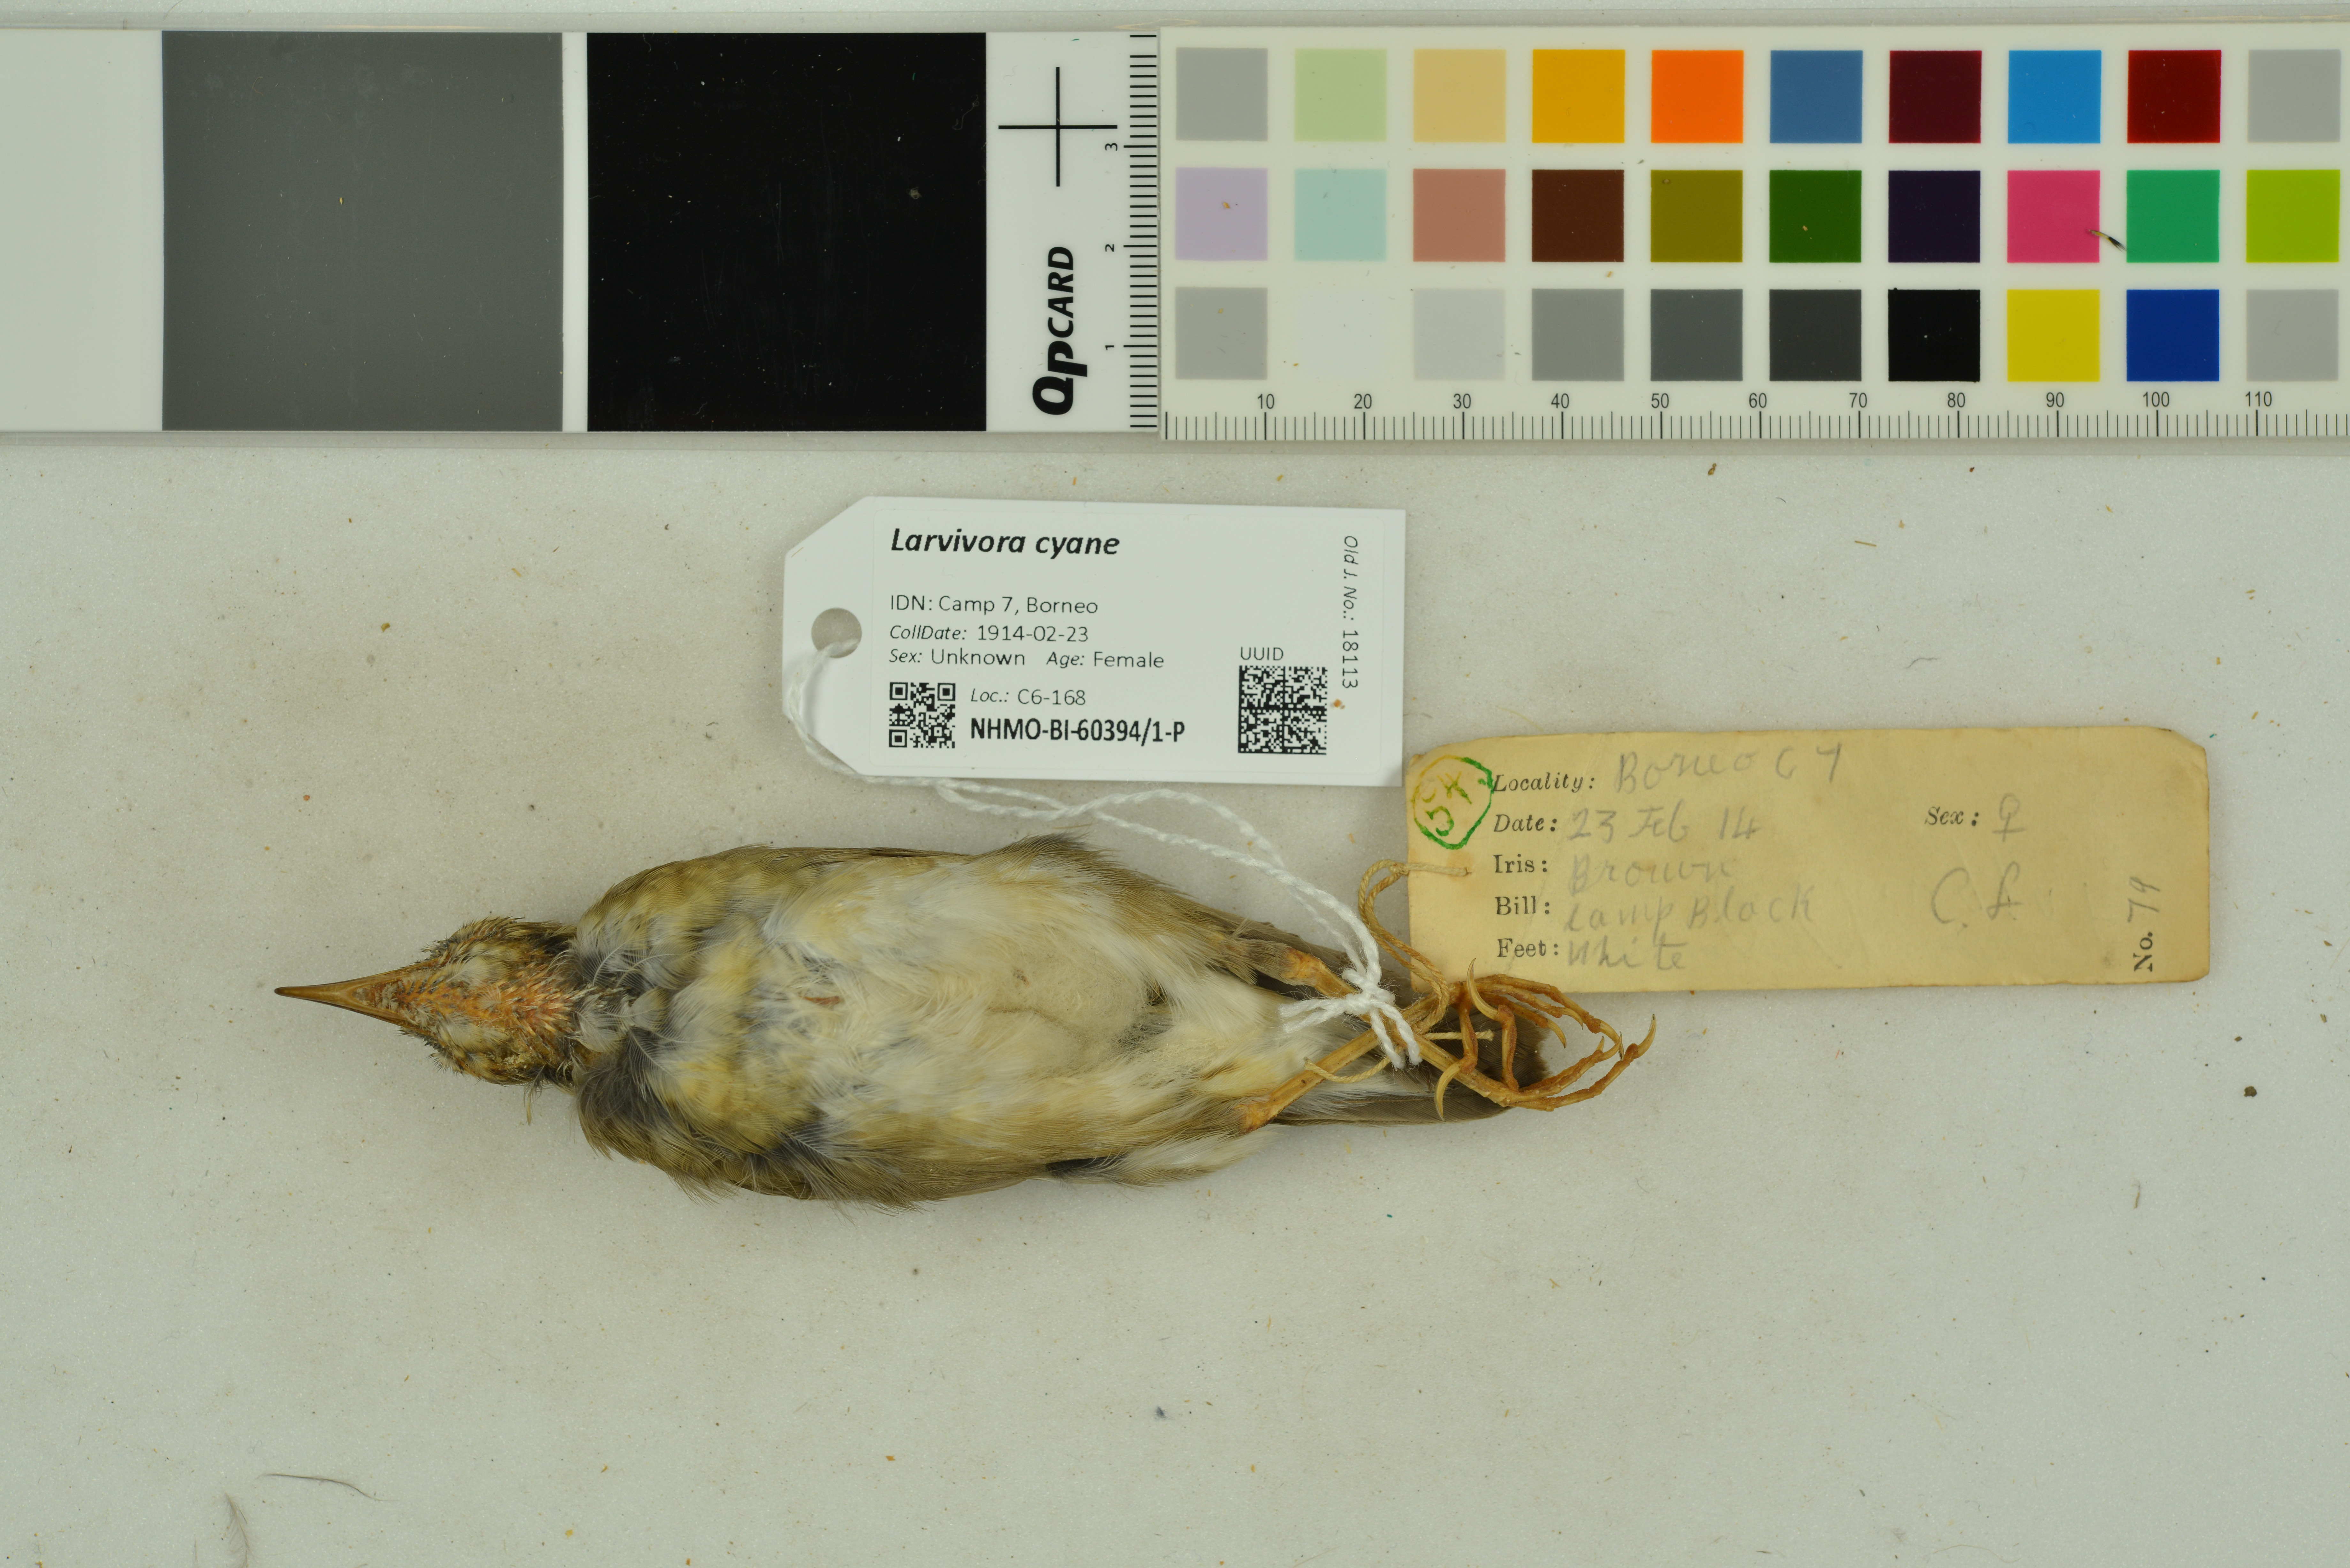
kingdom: Animalia
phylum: Chordata
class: Aves
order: Passeriformes
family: Muscicapidae
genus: Luscinia
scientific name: Luscinia cyane
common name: Siberian blue robin
